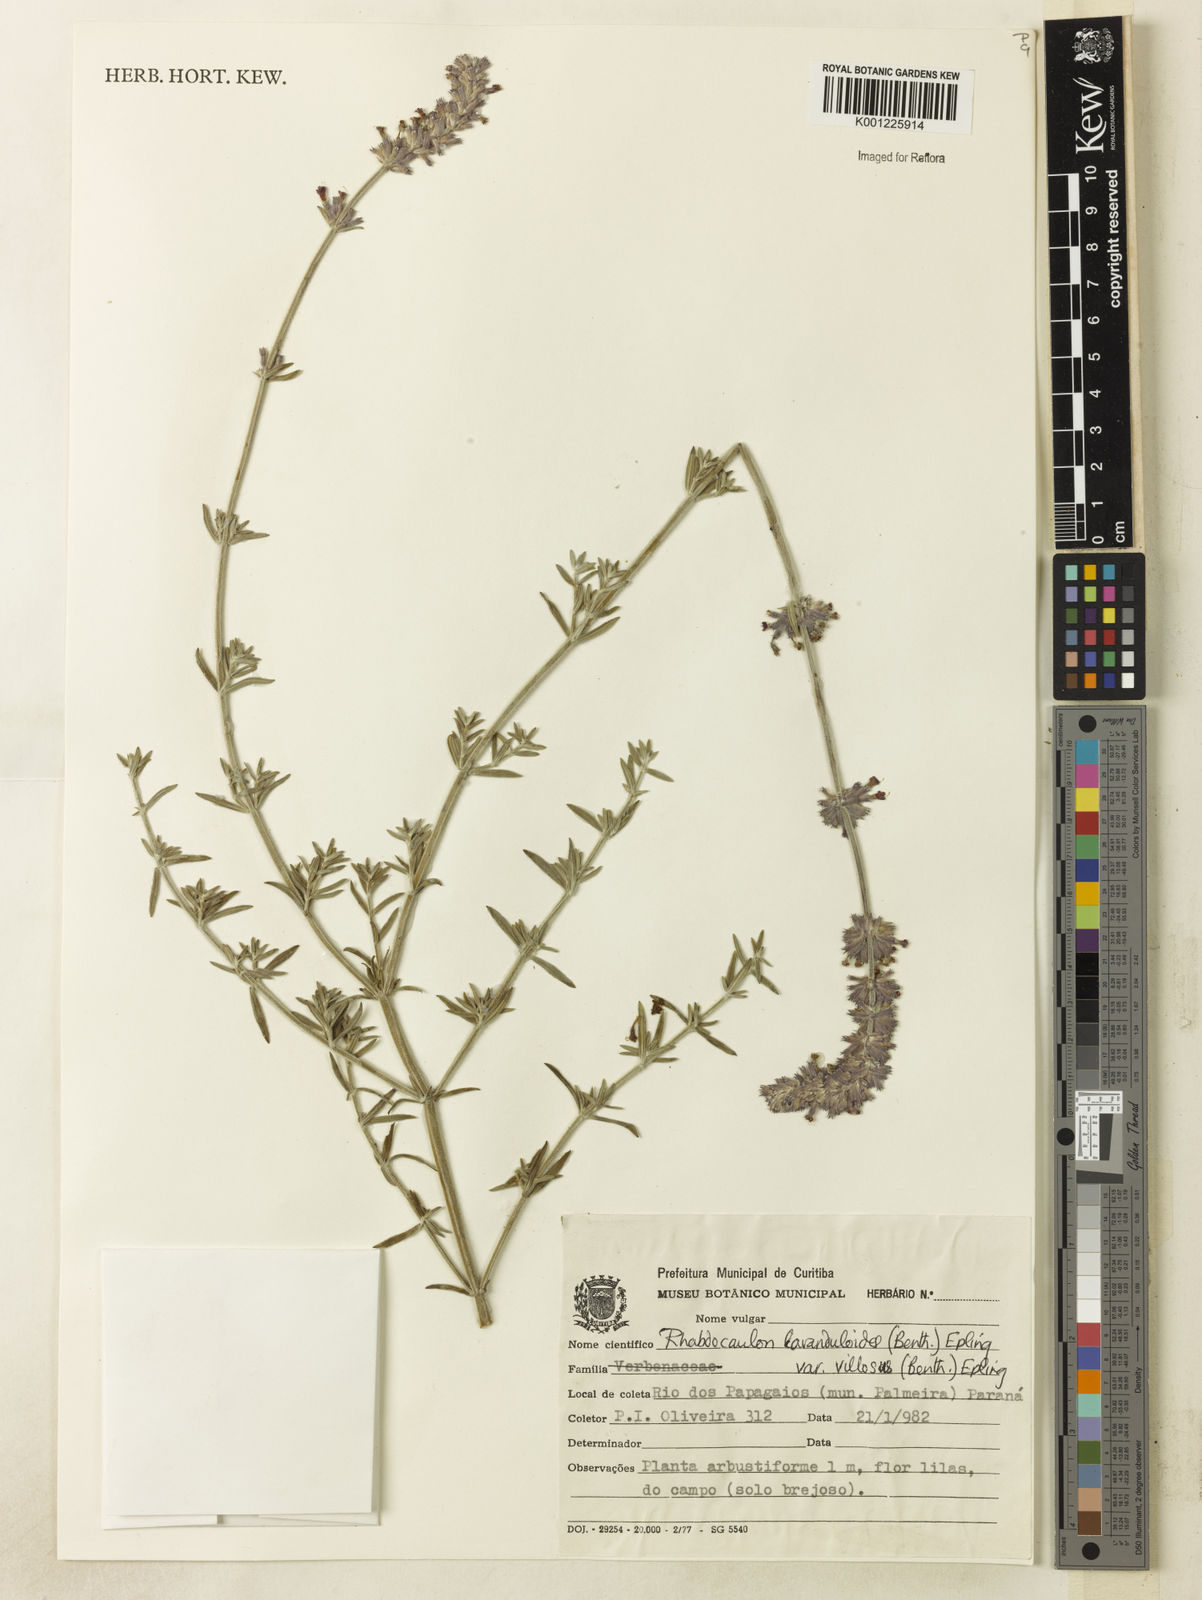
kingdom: Plantae
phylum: Tracheophyta
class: Magnoliopsida
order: Lamiales
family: Lamiaceae
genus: Rhabdocaulon
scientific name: Rhabdocaulon lavanduloides
